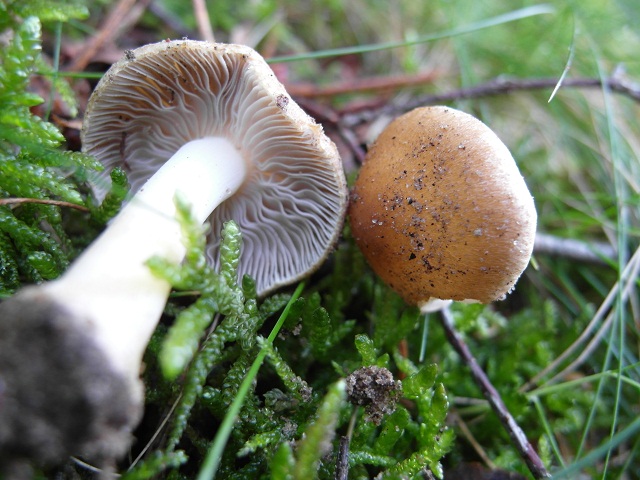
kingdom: Fungi
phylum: Basidiomycota
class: Agaricomycetes
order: Agaricales
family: Inocybaceae
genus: Inocybe
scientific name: Inocybe mixtilis
